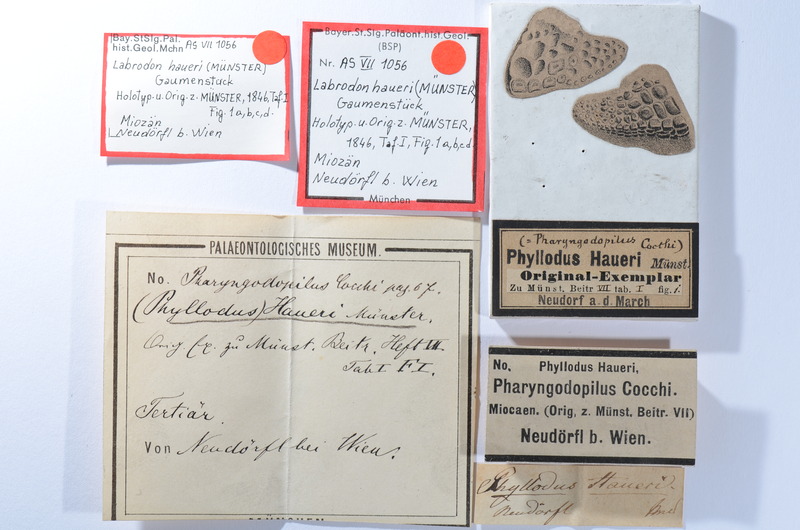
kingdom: Animalia
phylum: Chordata
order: Perciformes
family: Labridae
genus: Labrodon
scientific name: Labrodon
